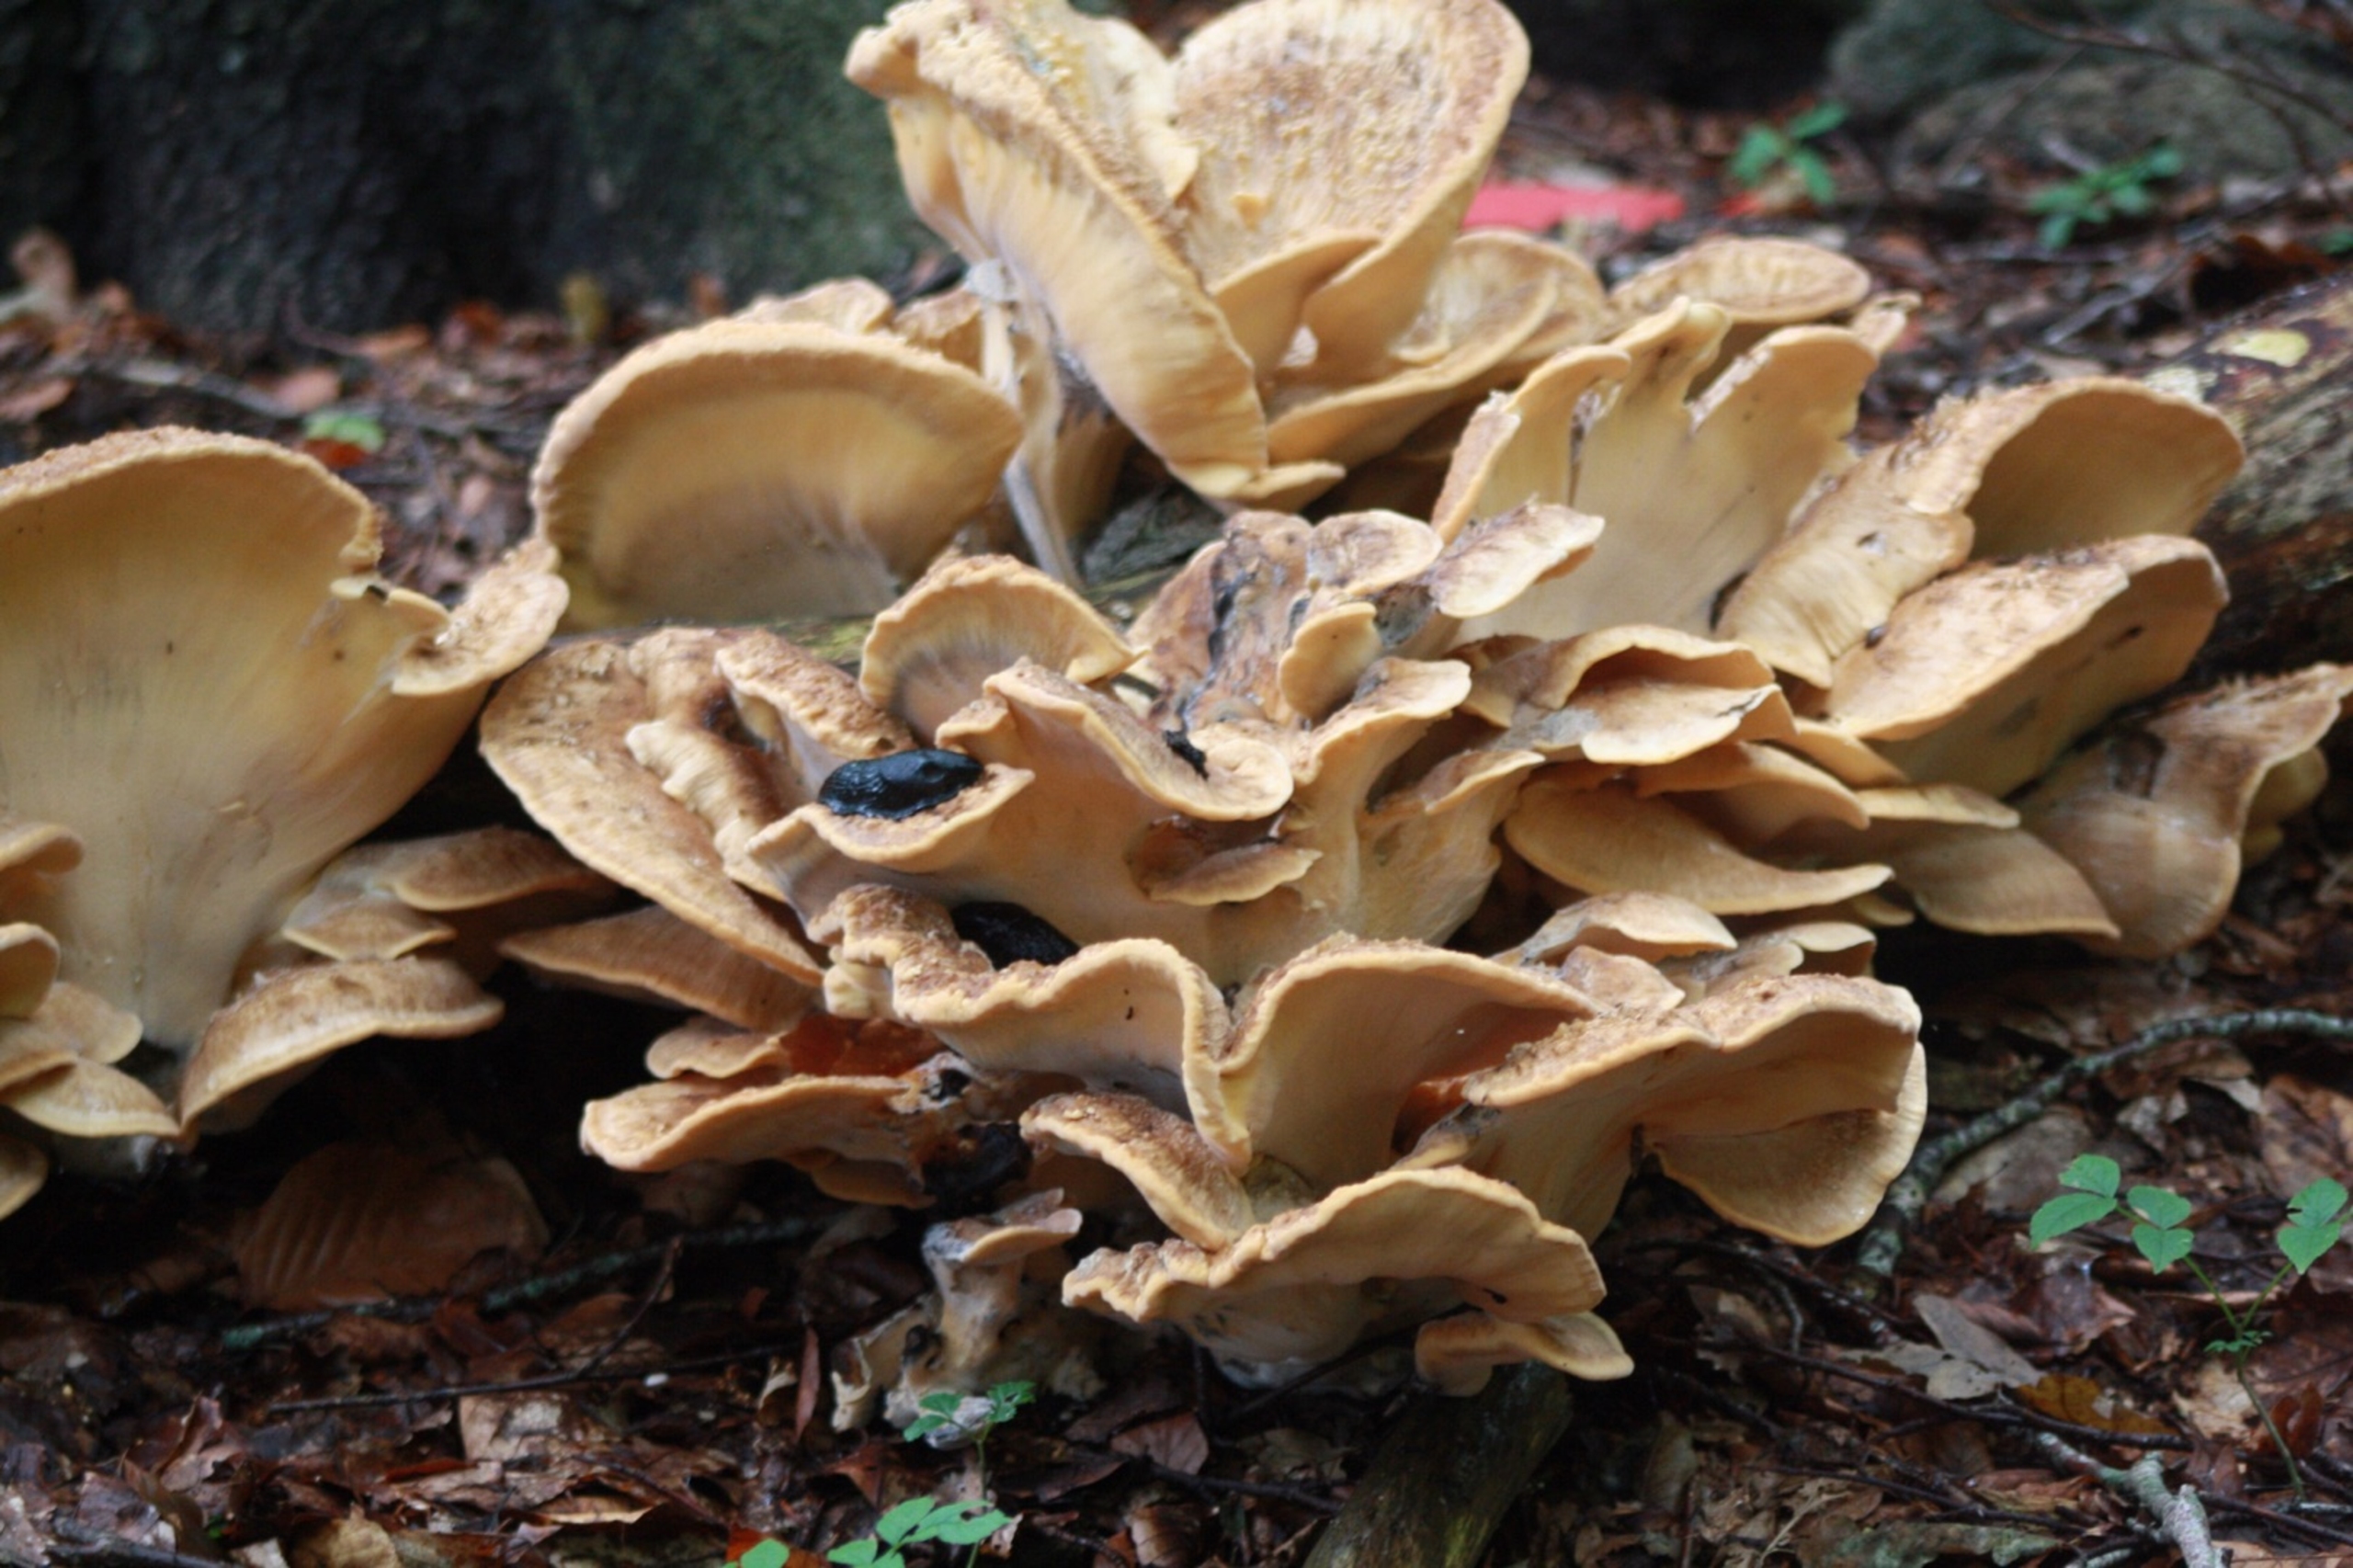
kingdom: Fungi
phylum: Basidiomycota
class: Agaricomycetes
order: Polyporales
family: Meripilaceae
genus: Meripilus
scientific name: Meripilus
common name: Kæmpeporesvamp
